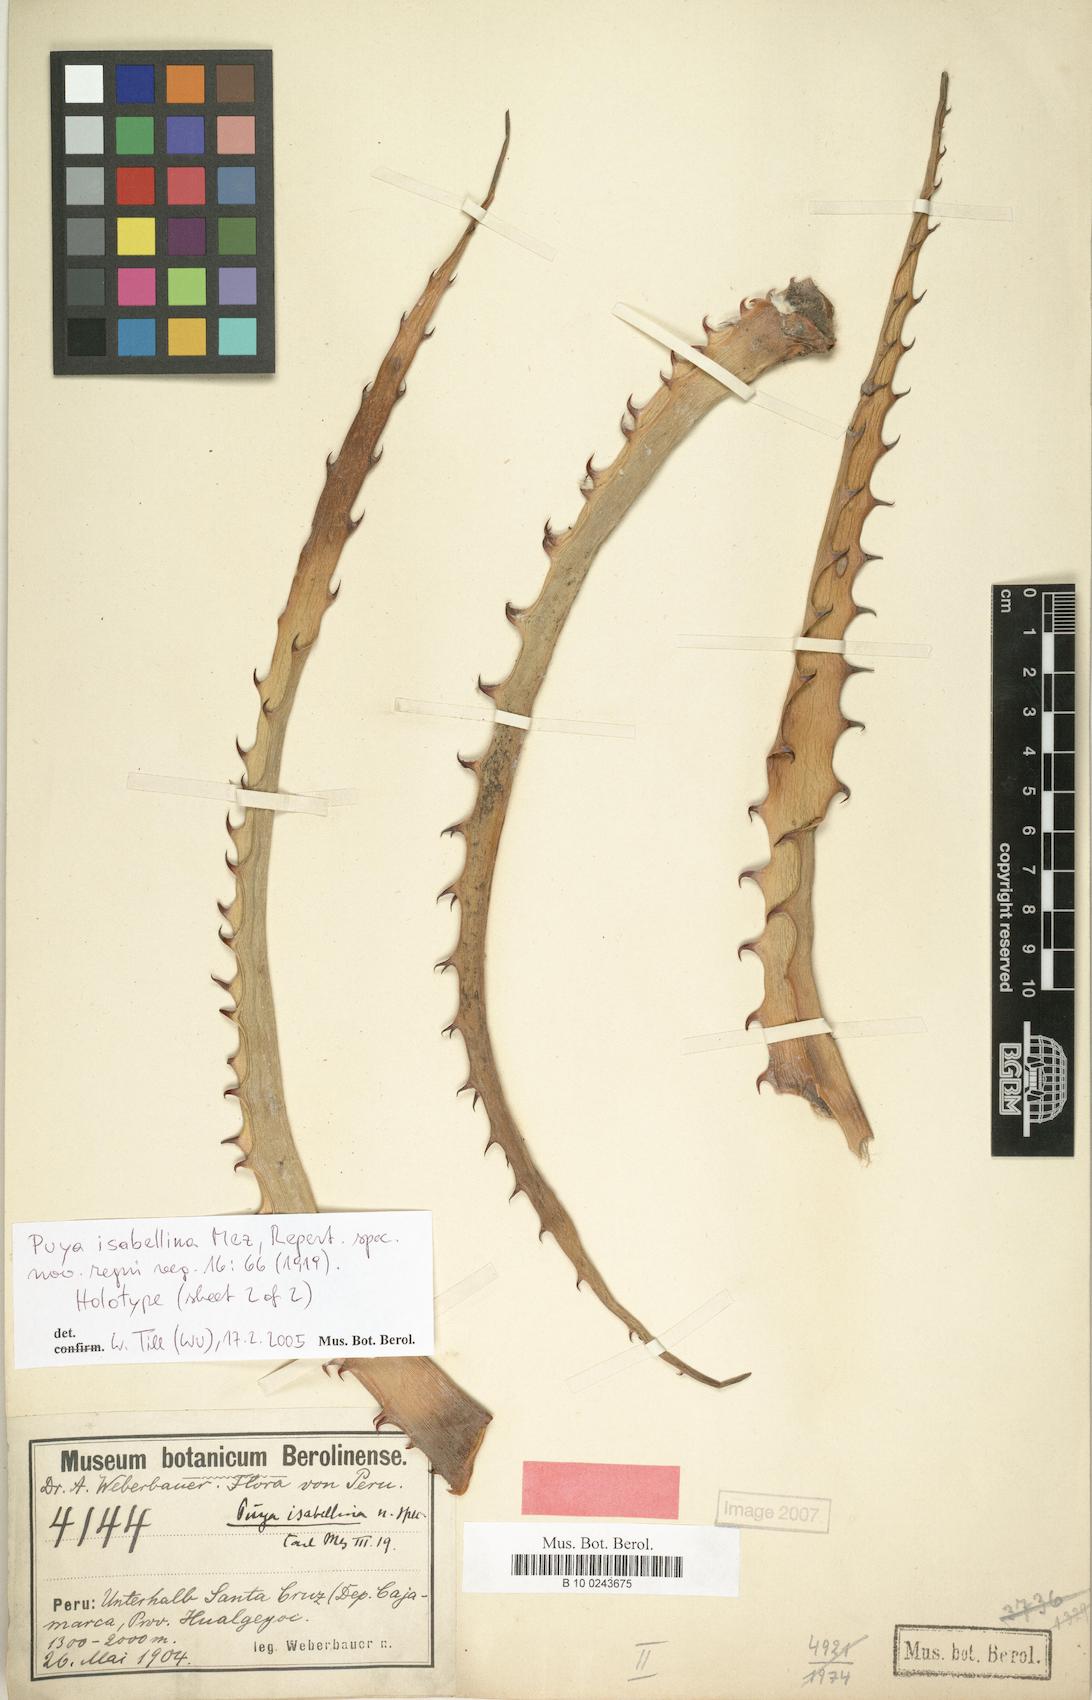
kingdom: Plantae
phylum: Tracheophyta
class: Liliopsida
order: Poales
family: Bromeliaceae
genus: Puya
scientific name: Puya isabellina
